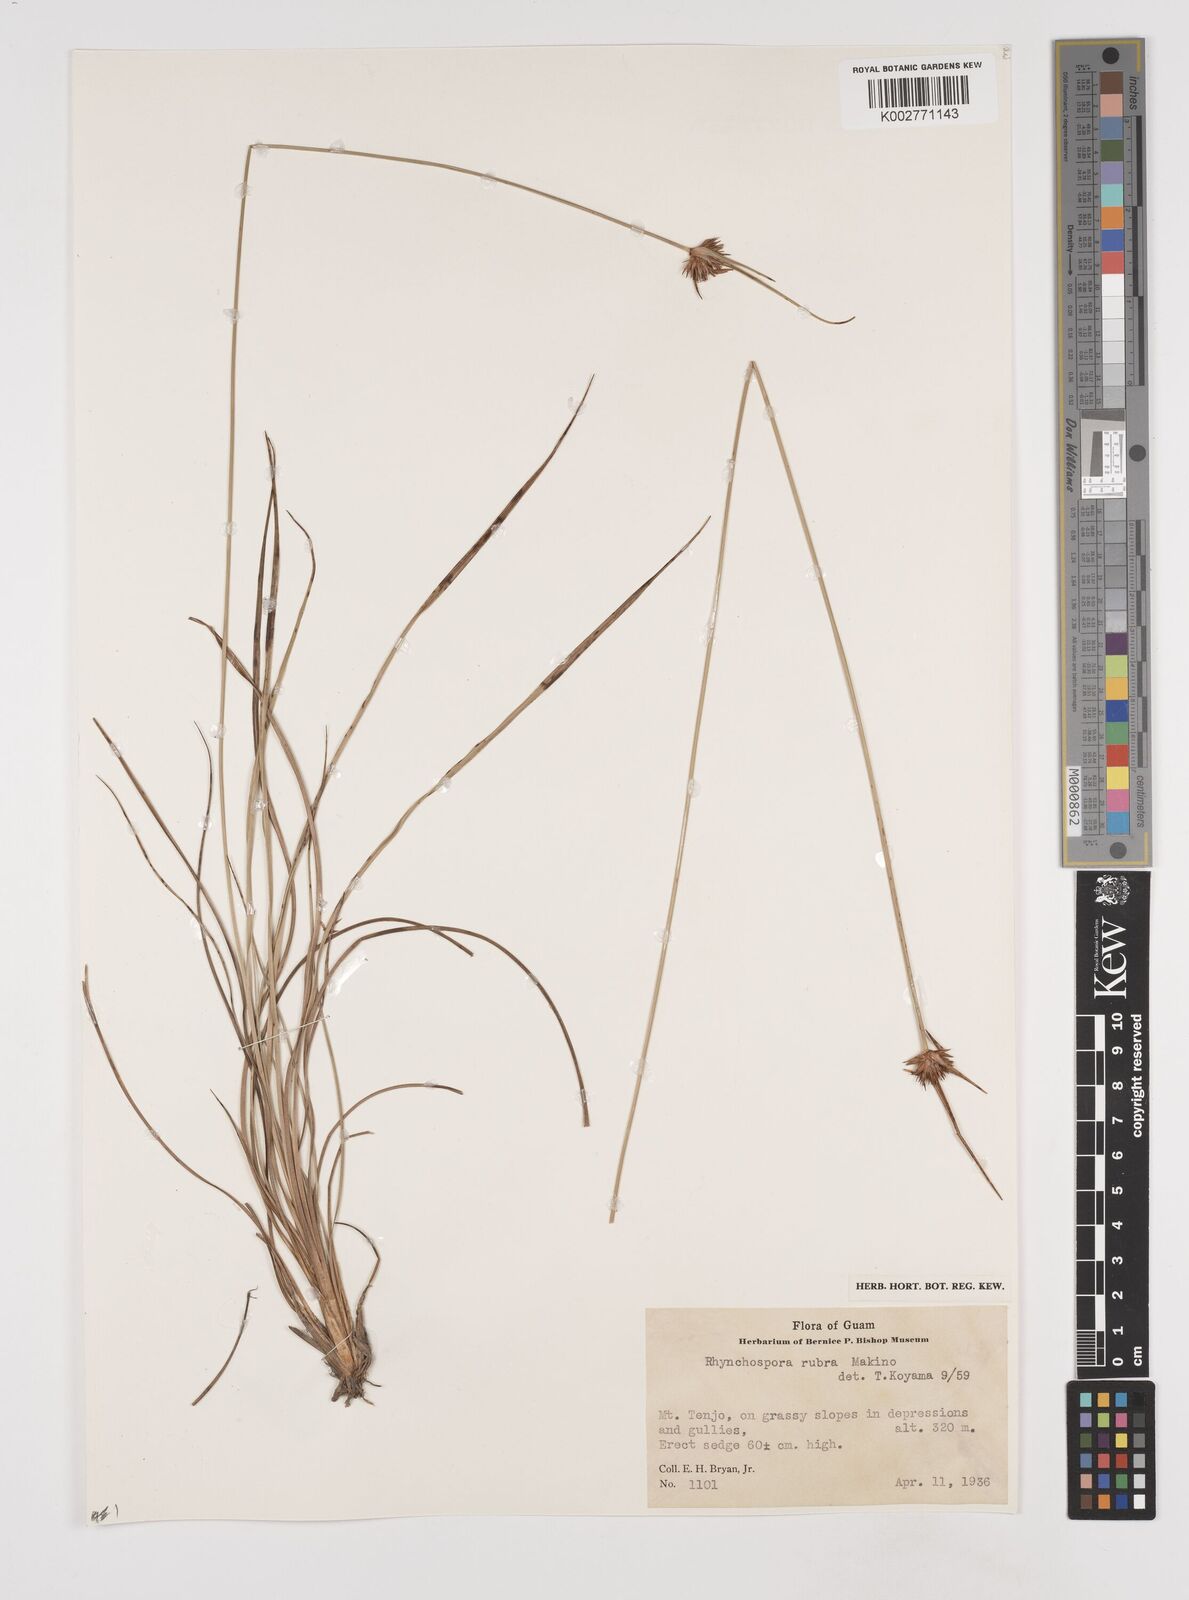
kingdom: Plantae
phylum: Tracheophyta
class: Liliopsida
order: Poales
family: Cyperaceae
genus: Rhynchospora
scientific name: Rhynchospora rubra
